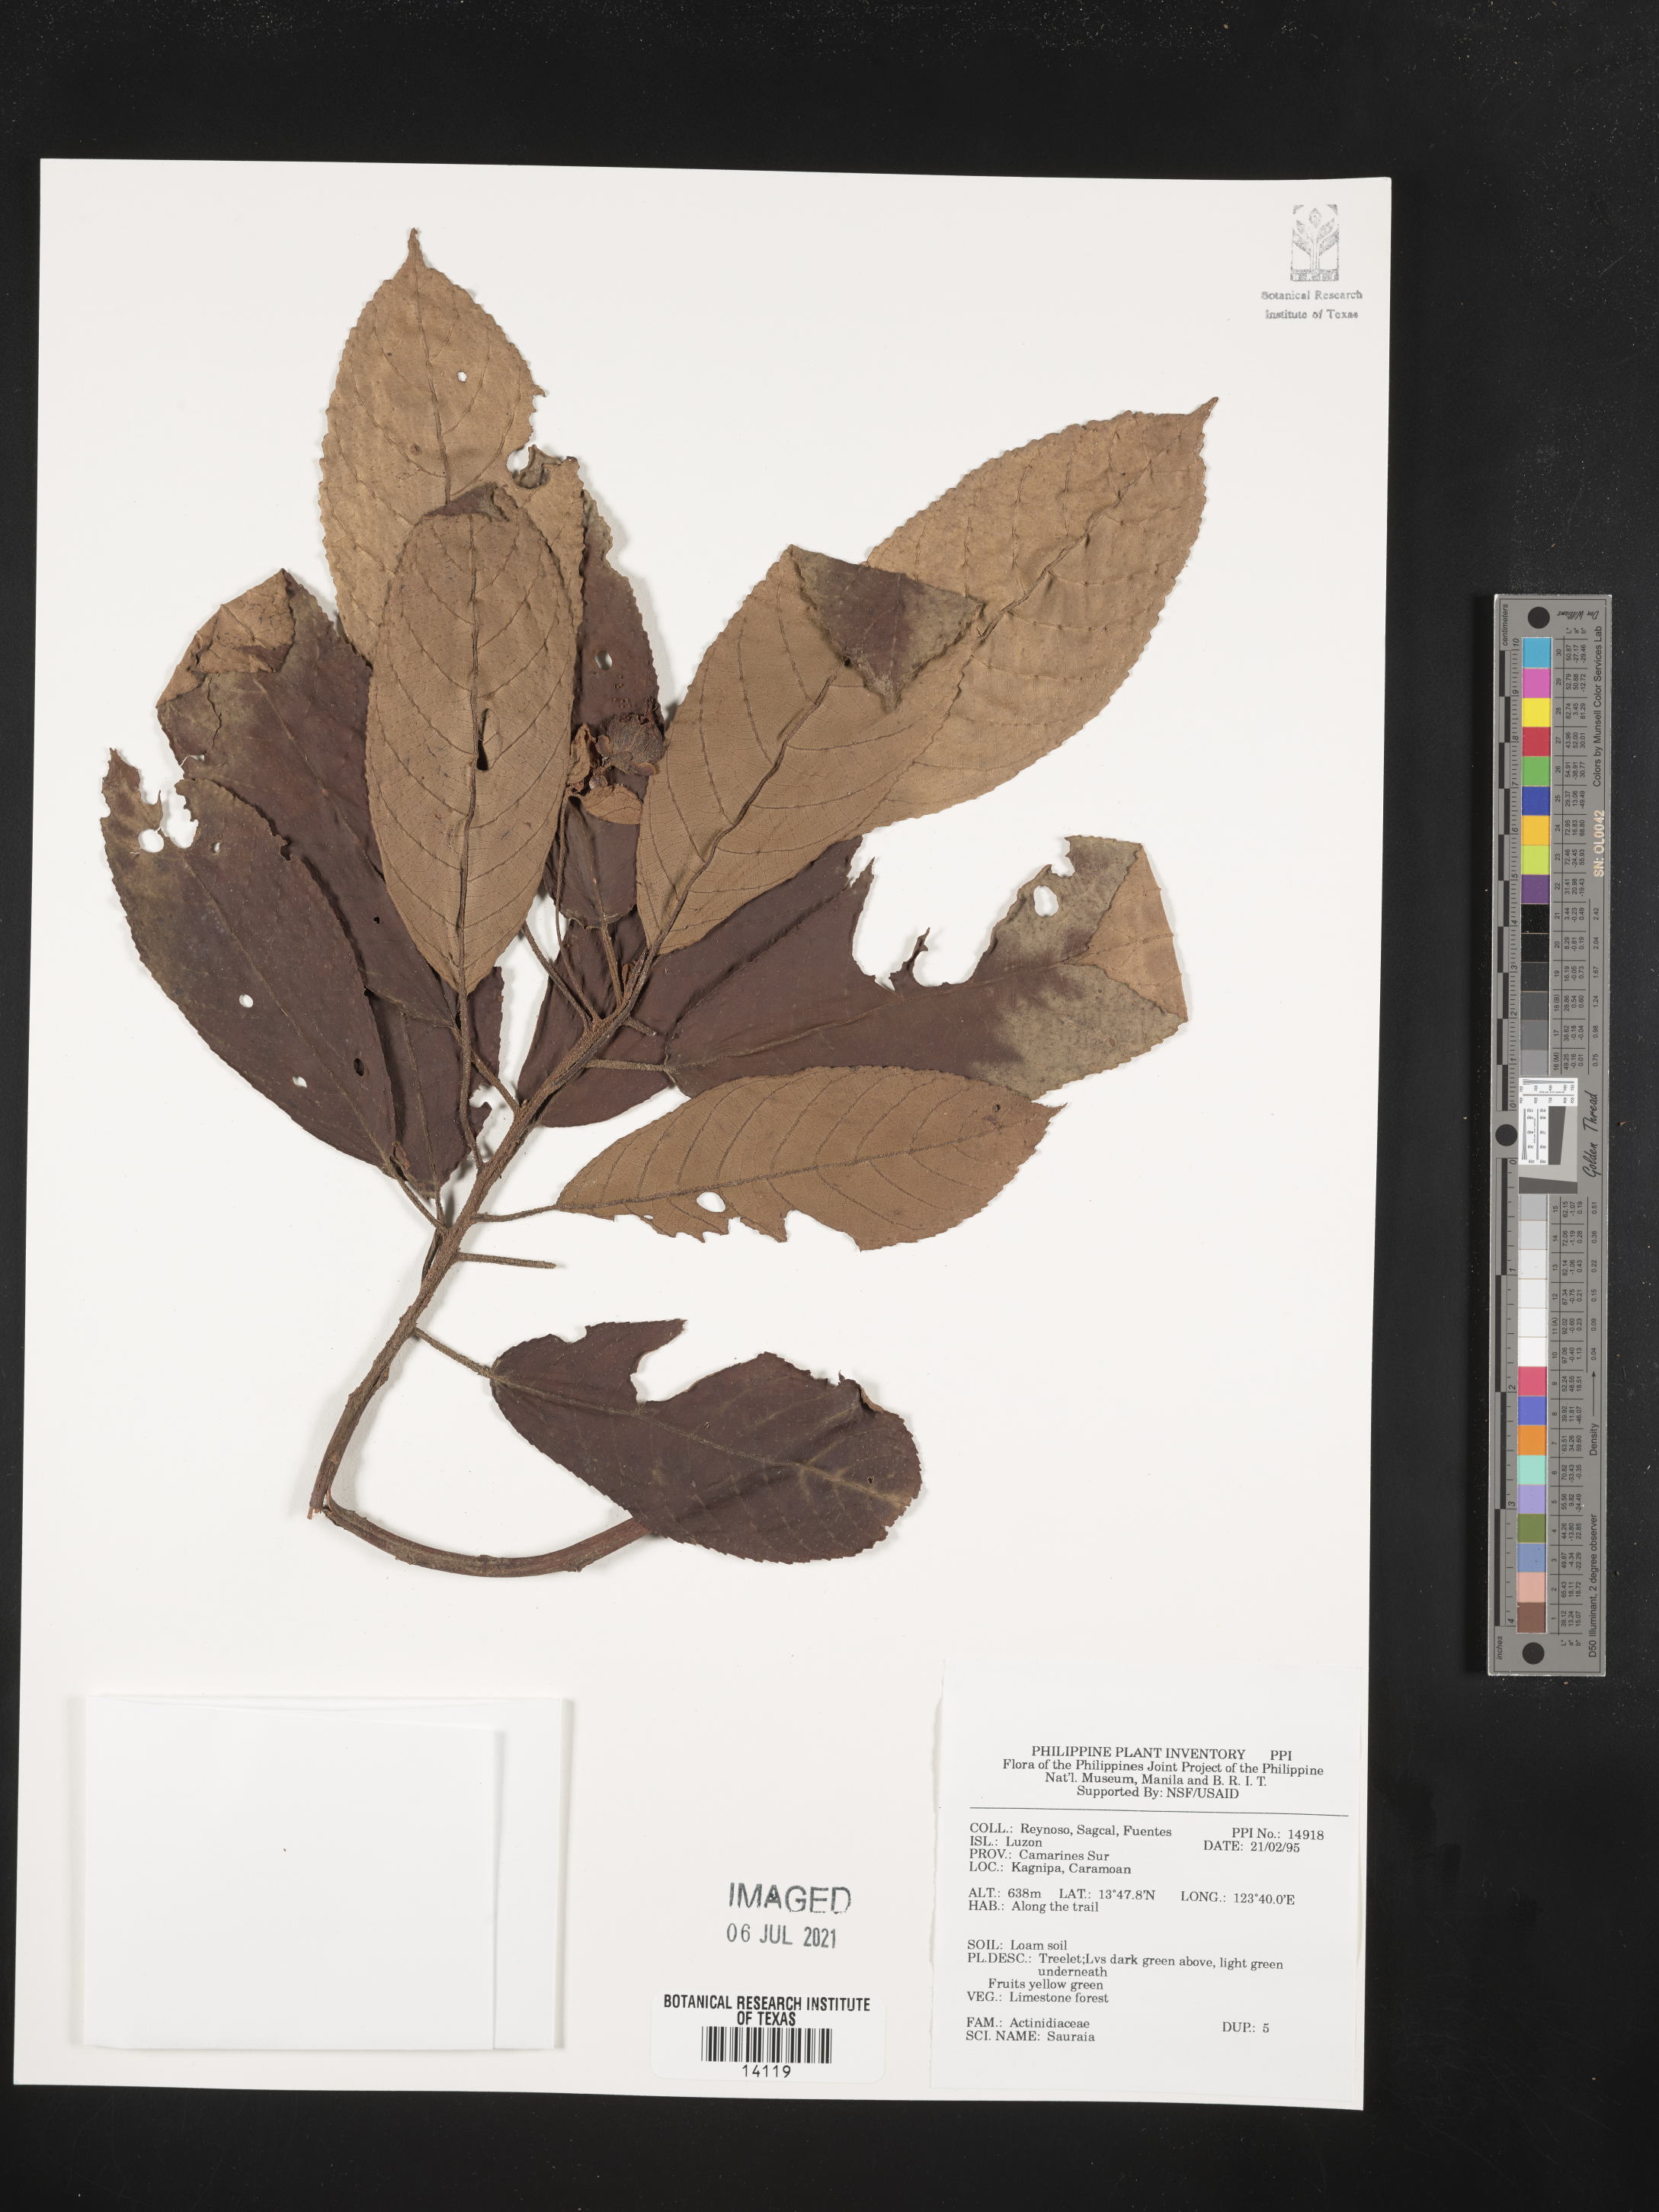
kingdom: Plantae
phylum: Tracheophyta
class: Magnoliopsida
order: Ericales
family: Actinidiaceae
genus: Saurauia
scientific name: Saurauia
